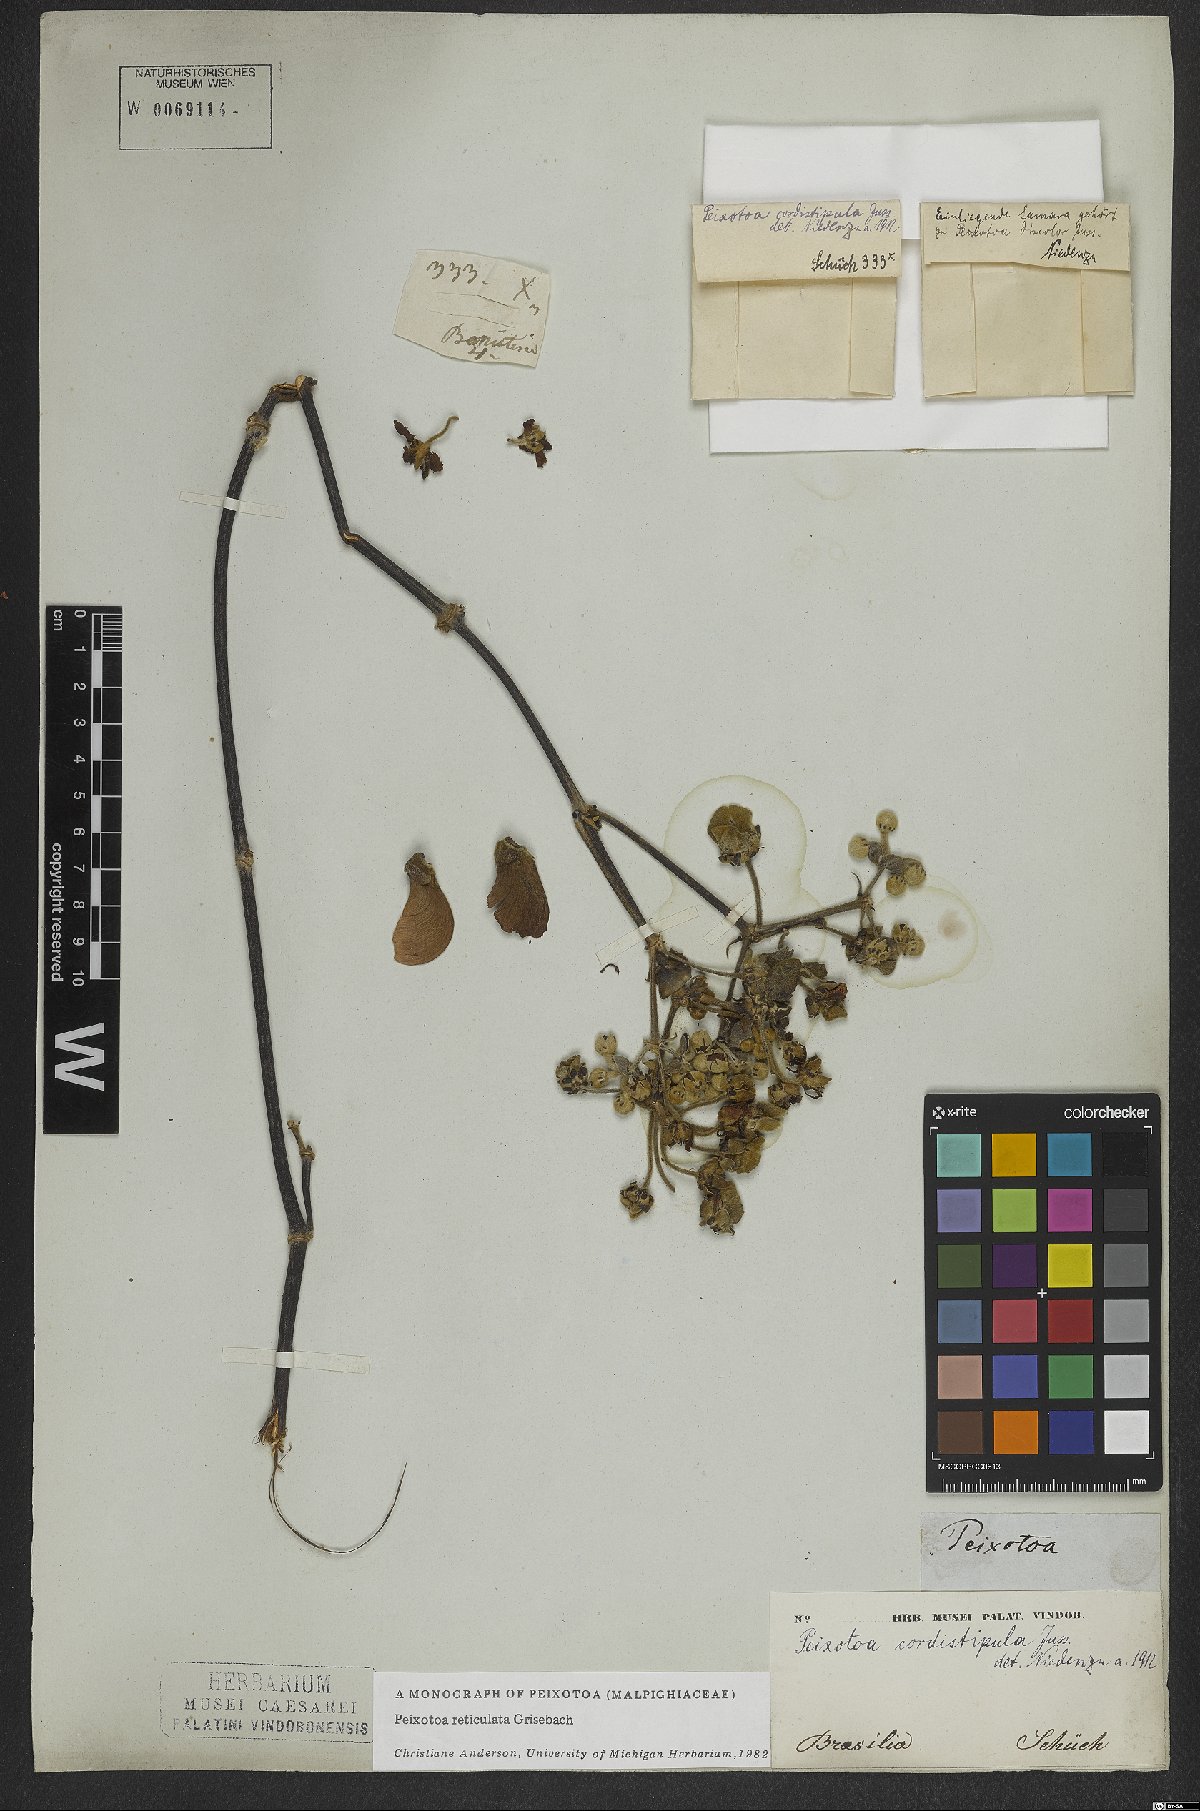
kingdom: Plantae
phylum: Tracheophyta
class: Magnoliopsida
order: Malpighiales
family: Malpighiaceae
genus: Peixotoa
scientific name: Peixotoa reticulata
